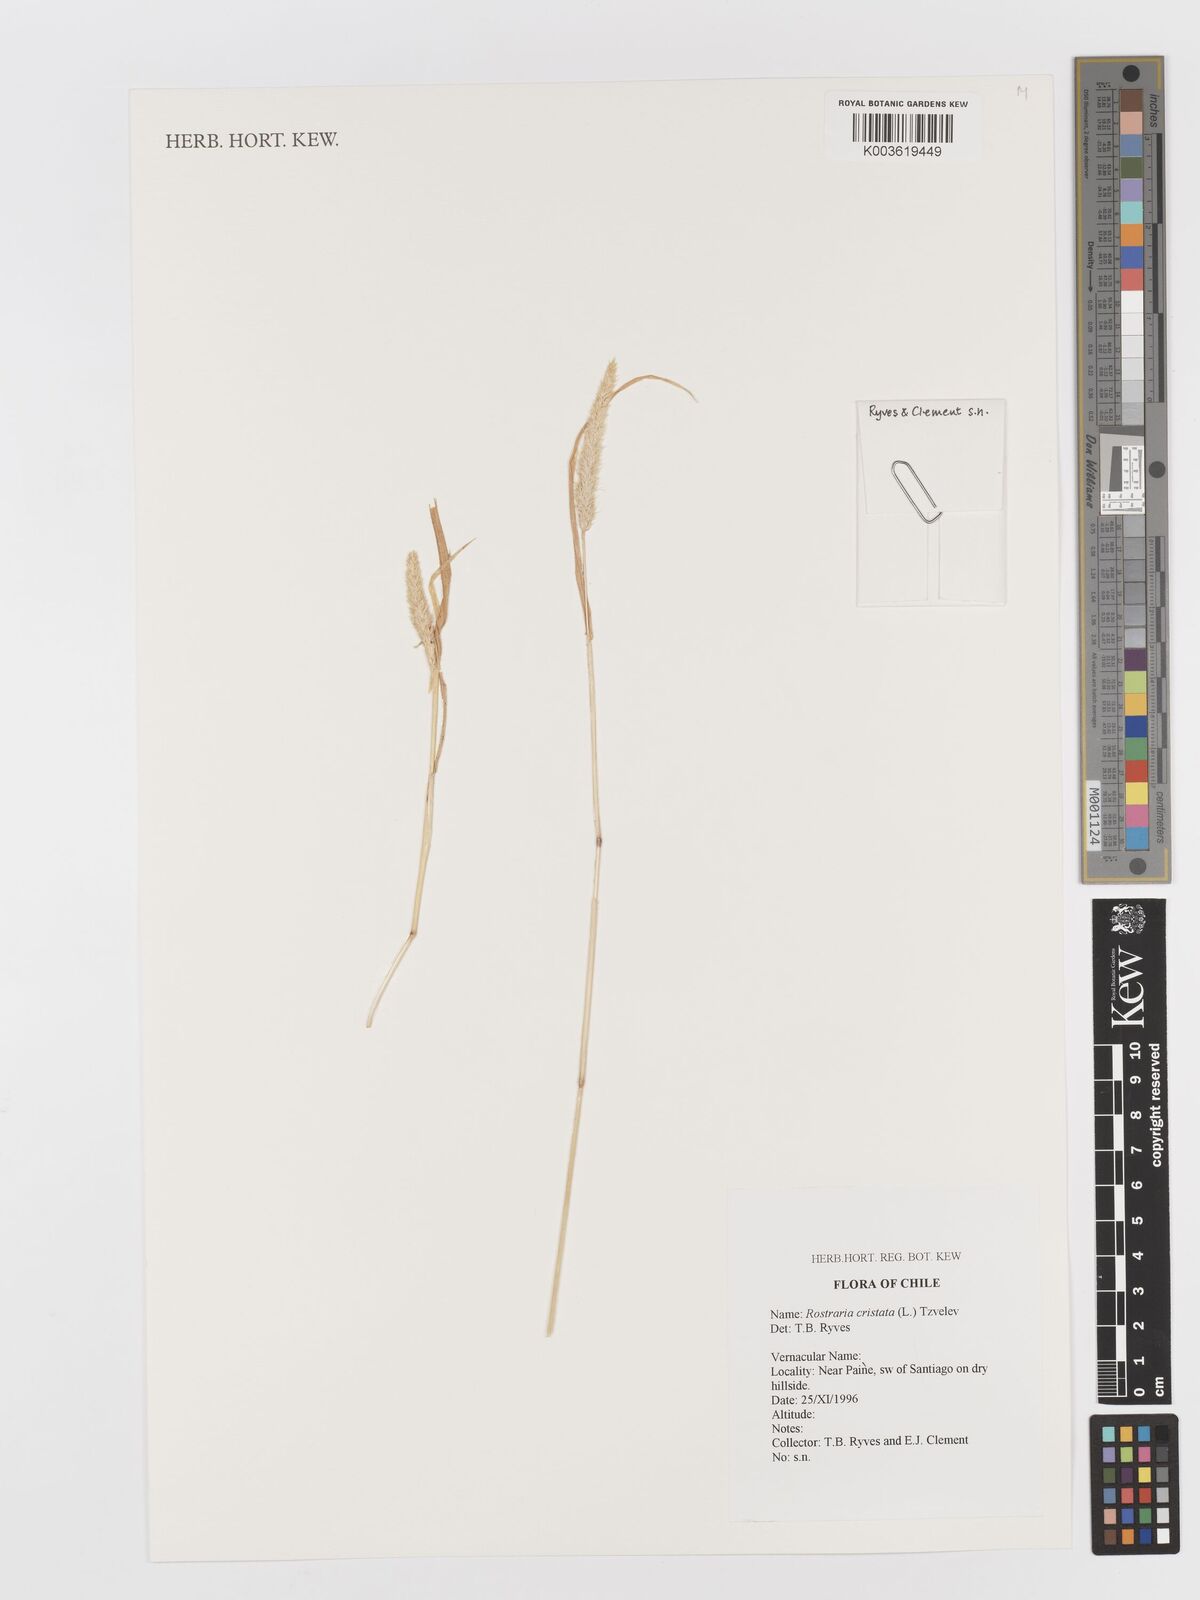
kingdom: Plantae
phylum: Tracheophyta
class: Liliopsida
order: Poales
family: Poaceae
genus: Rostraria
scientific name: Rostraria cristata
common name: Mediterranean hair-grass
